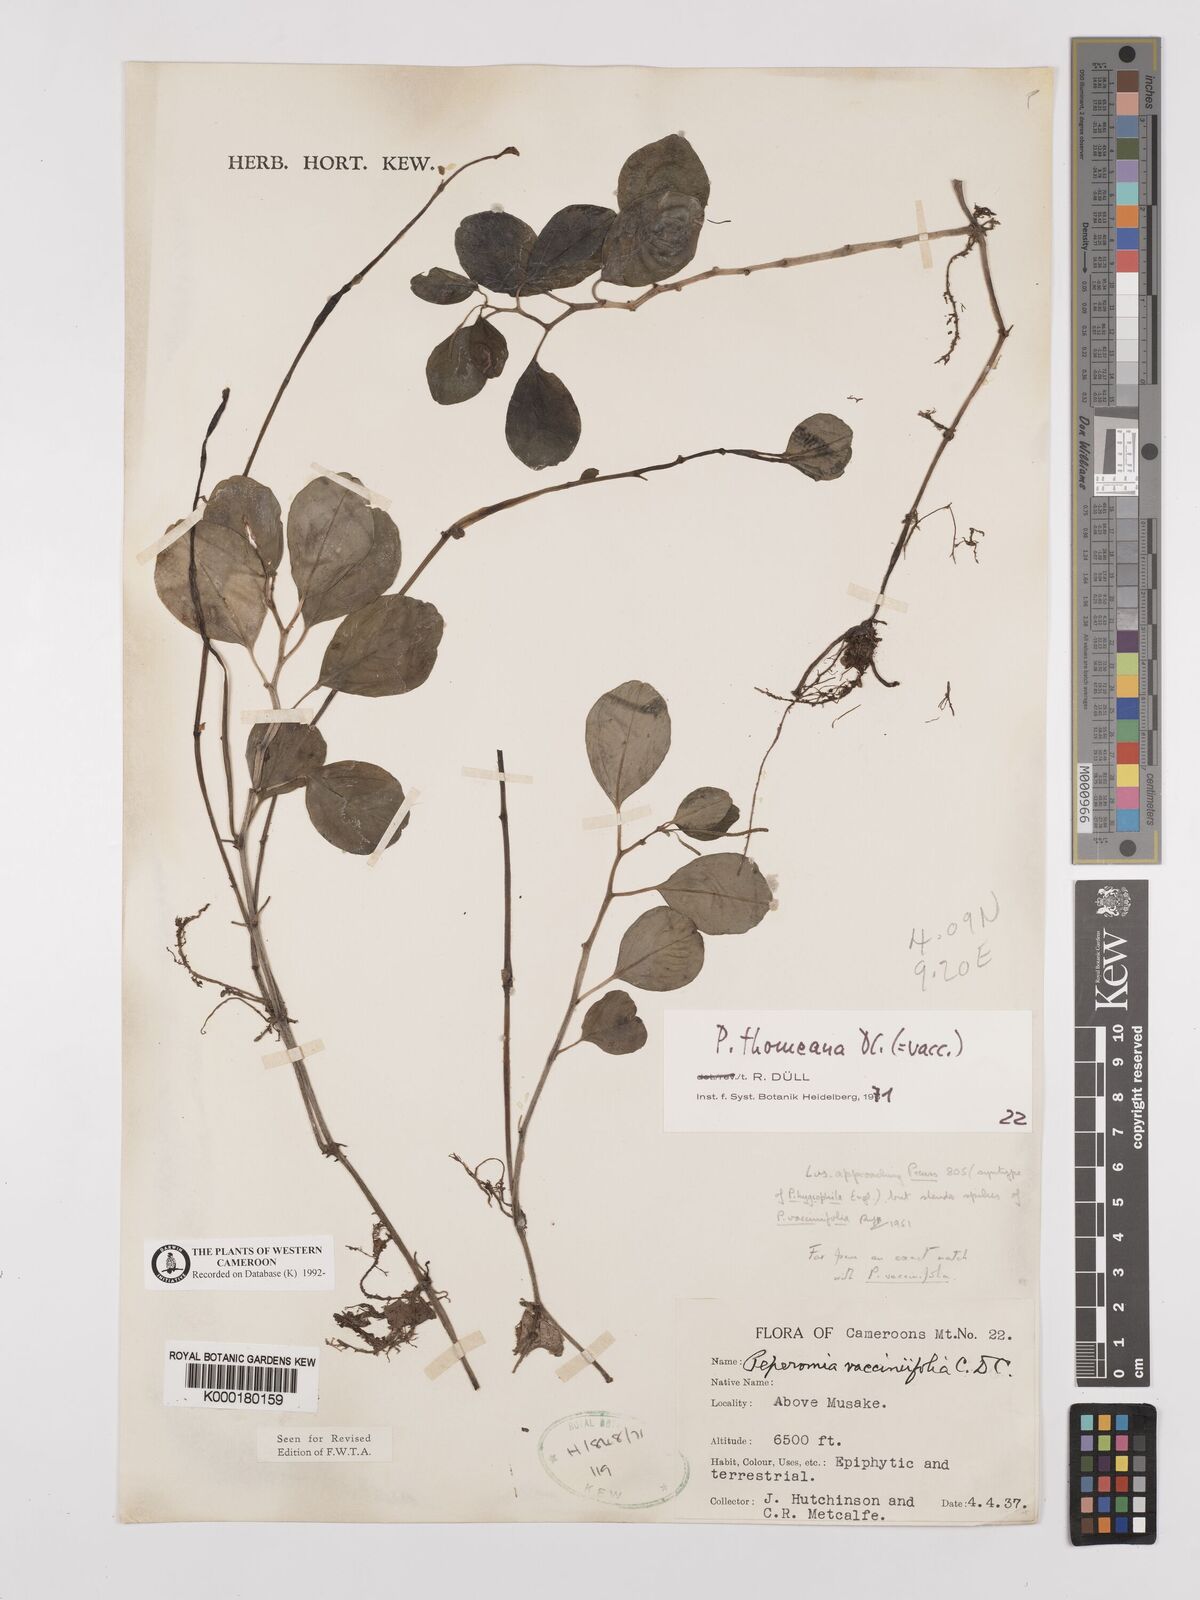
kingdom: Plantae
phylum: Tracheophyta
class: Magnoliopsida
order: Piperales
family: Piperaceae
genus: Peperomia
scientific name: Peperomia thomeana
